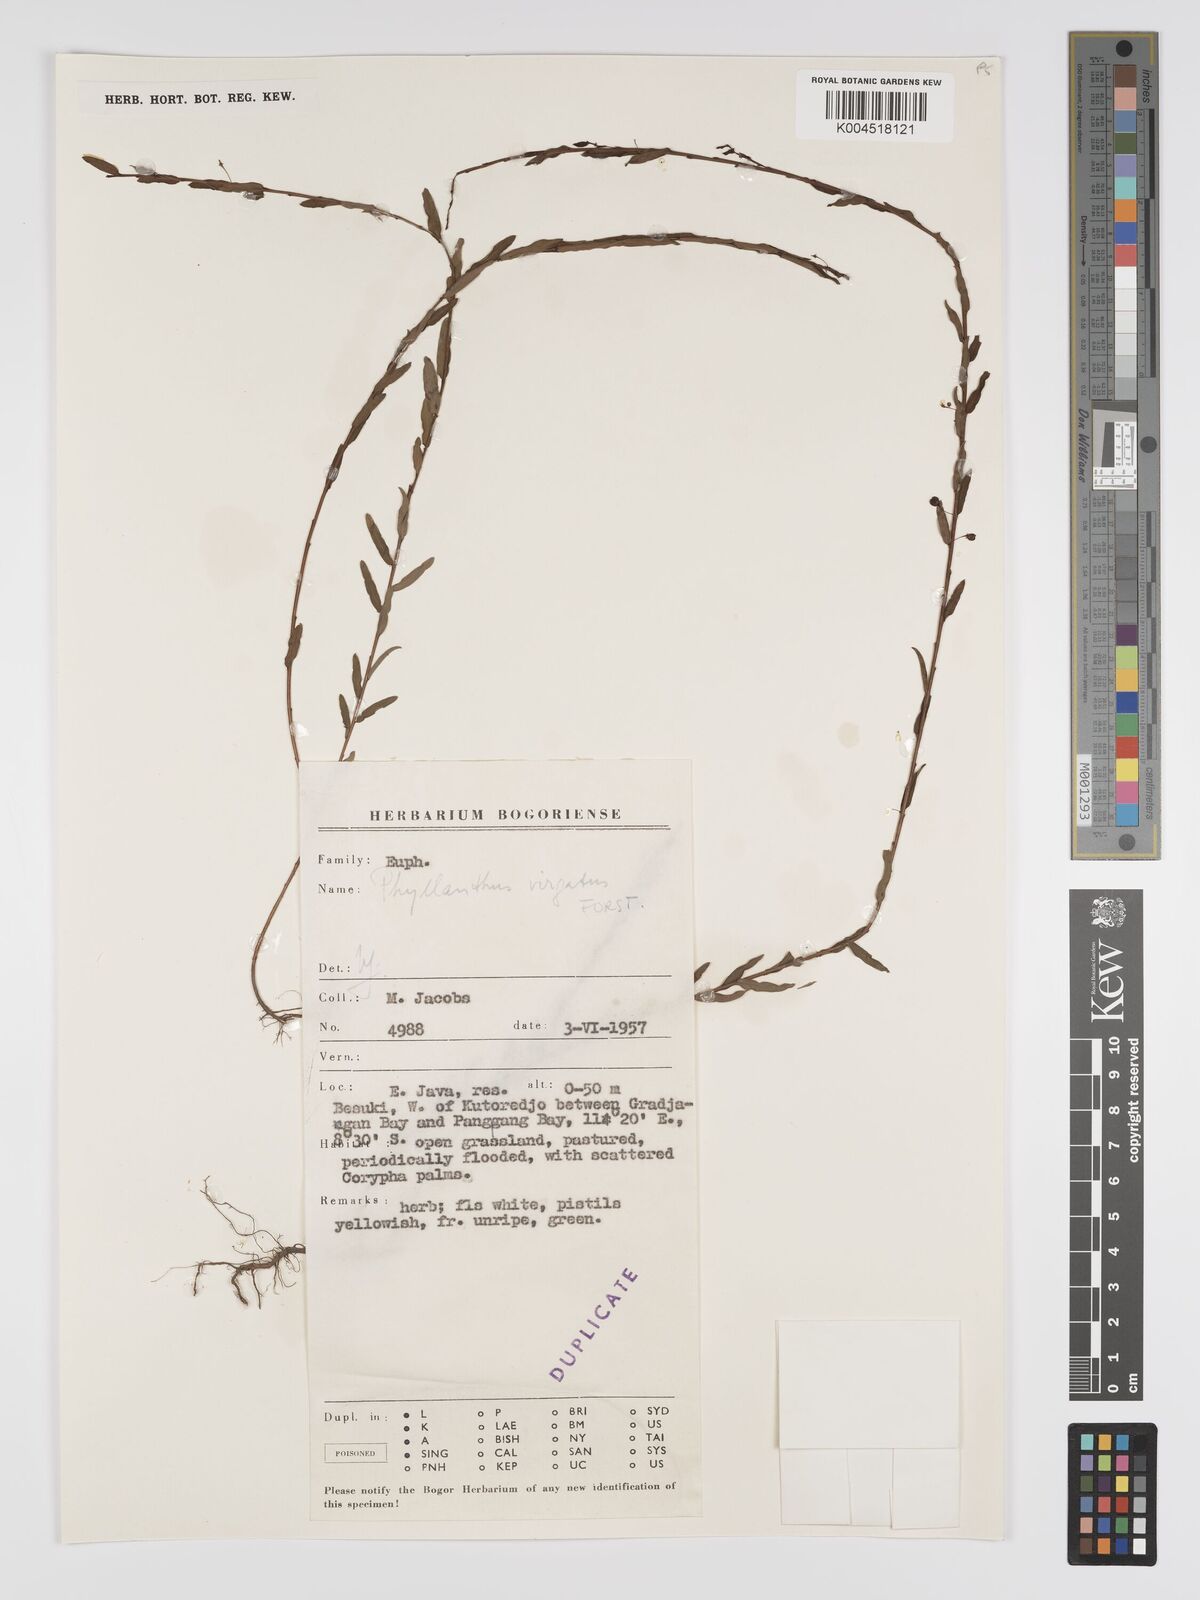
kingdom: Plantae
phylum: Tracheophyta
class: Magnoliopsida
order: Malpighiales
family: Phyllanthaceae
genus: Phyllanthus
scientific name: Phyllanthus virgatus
